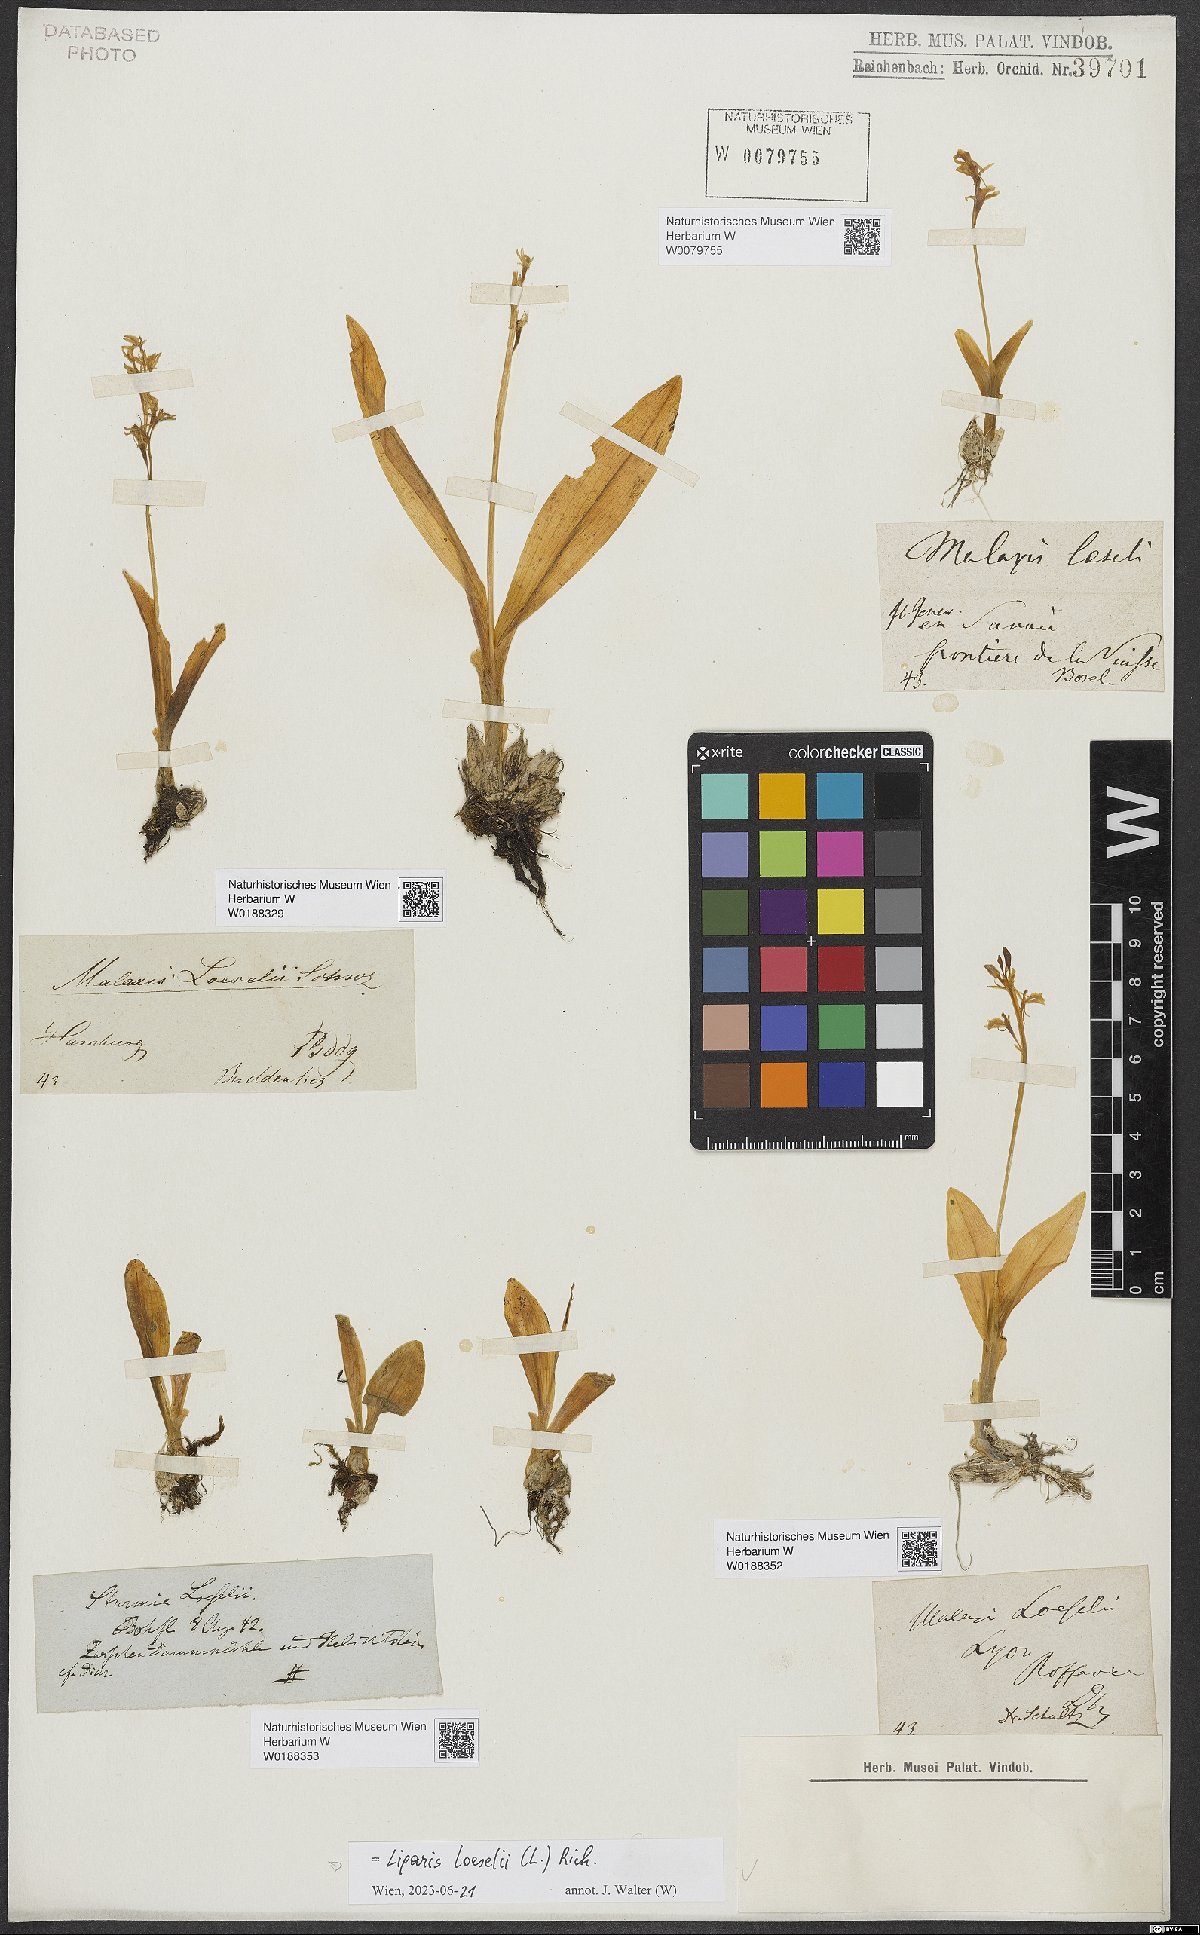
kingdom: Animalia
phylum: Arthropoda
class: Insecta
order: Coleoptera
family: Curculionidae
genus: Liparis
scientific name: Liparis loeselii
